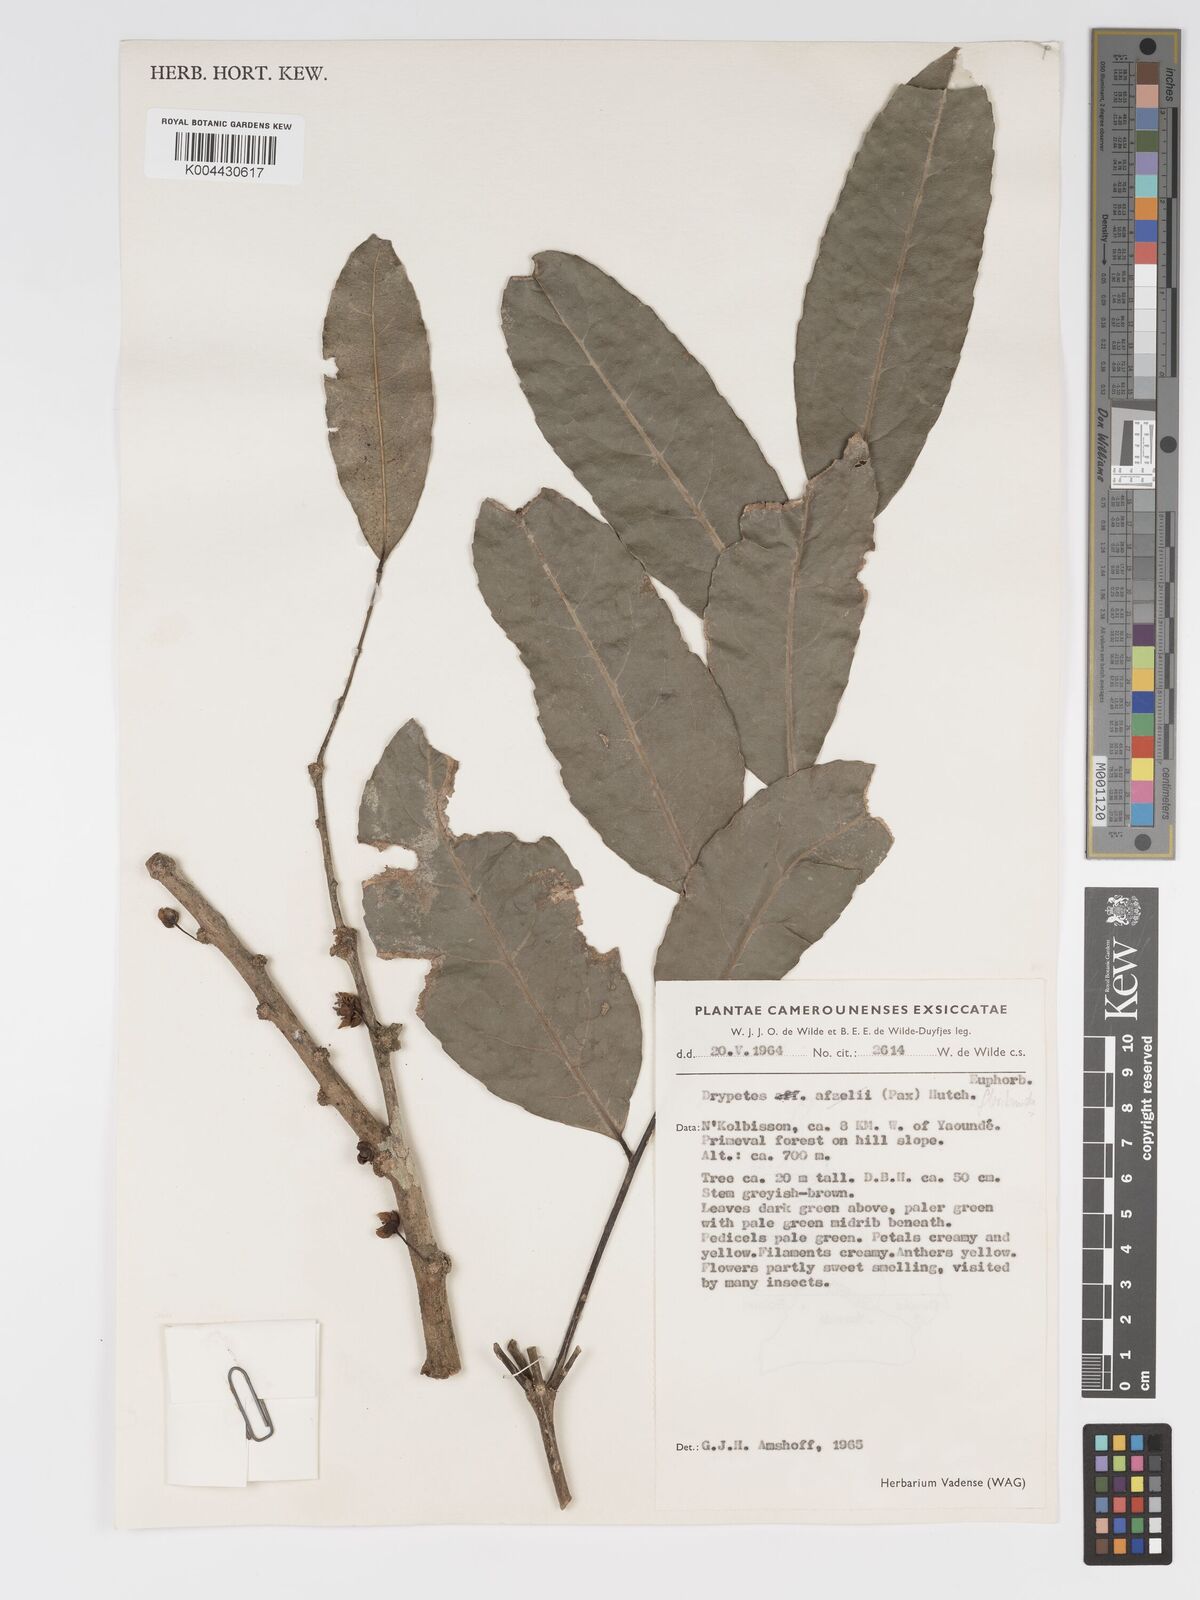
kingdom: Plantae
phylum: Tracheophyta
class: Magnoliopsida
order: Malpighiales
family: Putranjivaceae
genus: Drypetes
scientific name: Drypetes floribunda
